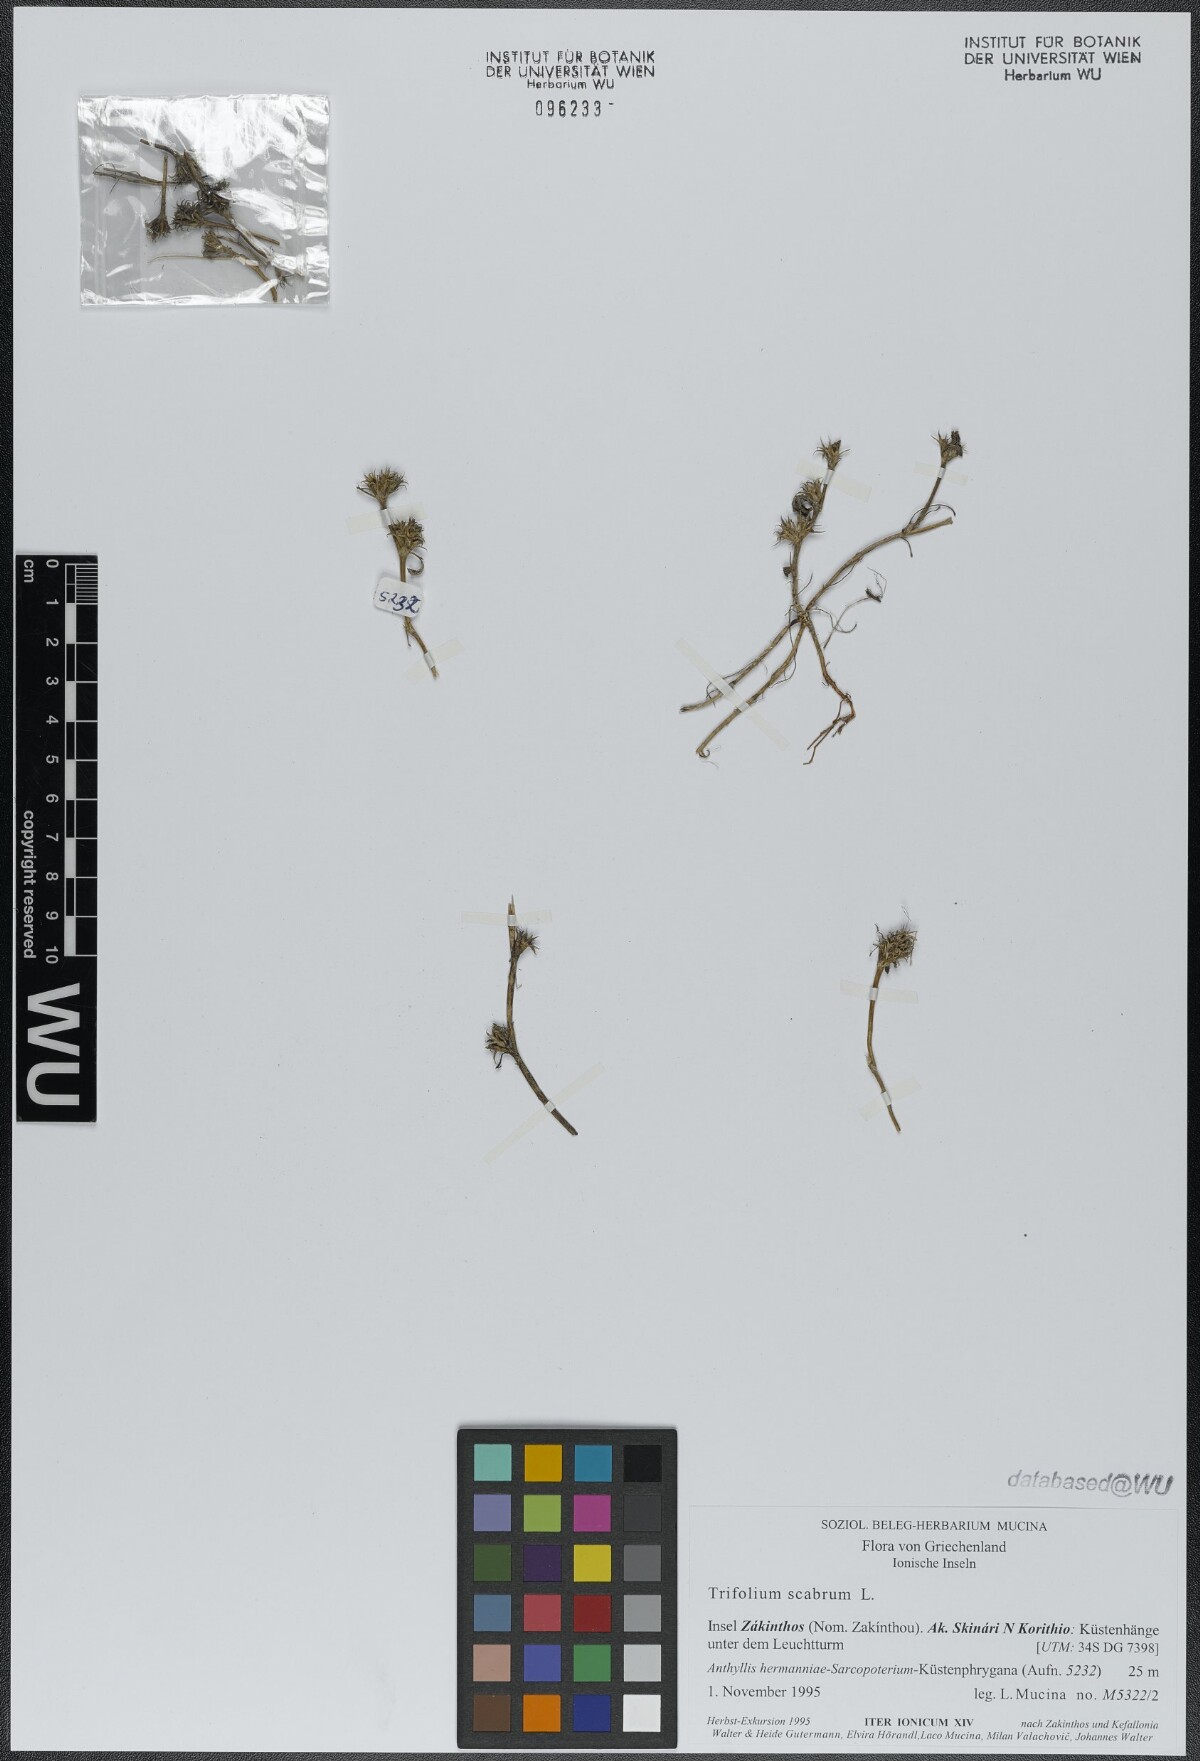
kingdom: Plantae
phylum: Tracheophyta
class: Magnoliopsida
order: Fabales
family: Fabaceae
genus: Trifolium
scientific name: Trifolium scabrum
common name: Rough clover
